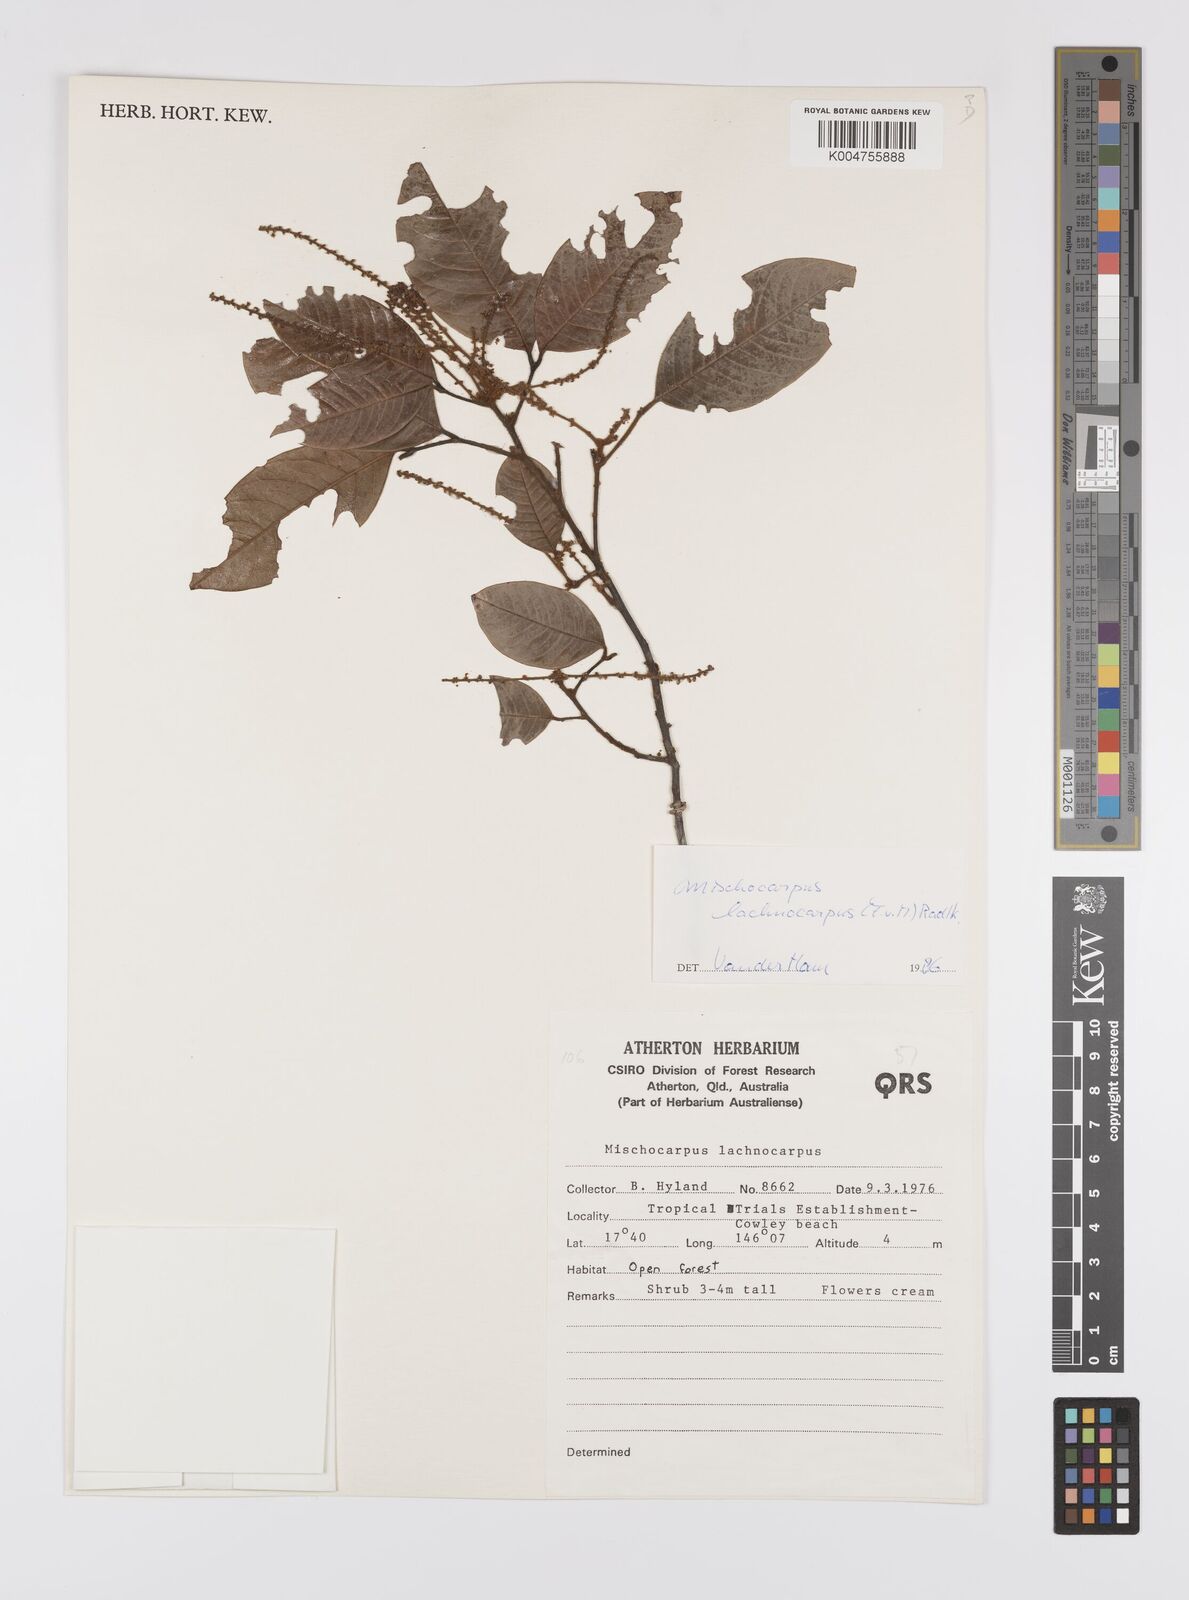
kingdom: Plantae
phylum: Tracheophyta
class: Magnoliopsida
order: Sapindales
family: Sapindaceae
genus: Mischocarpus
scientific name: Mischocarpus lachnocarpus
